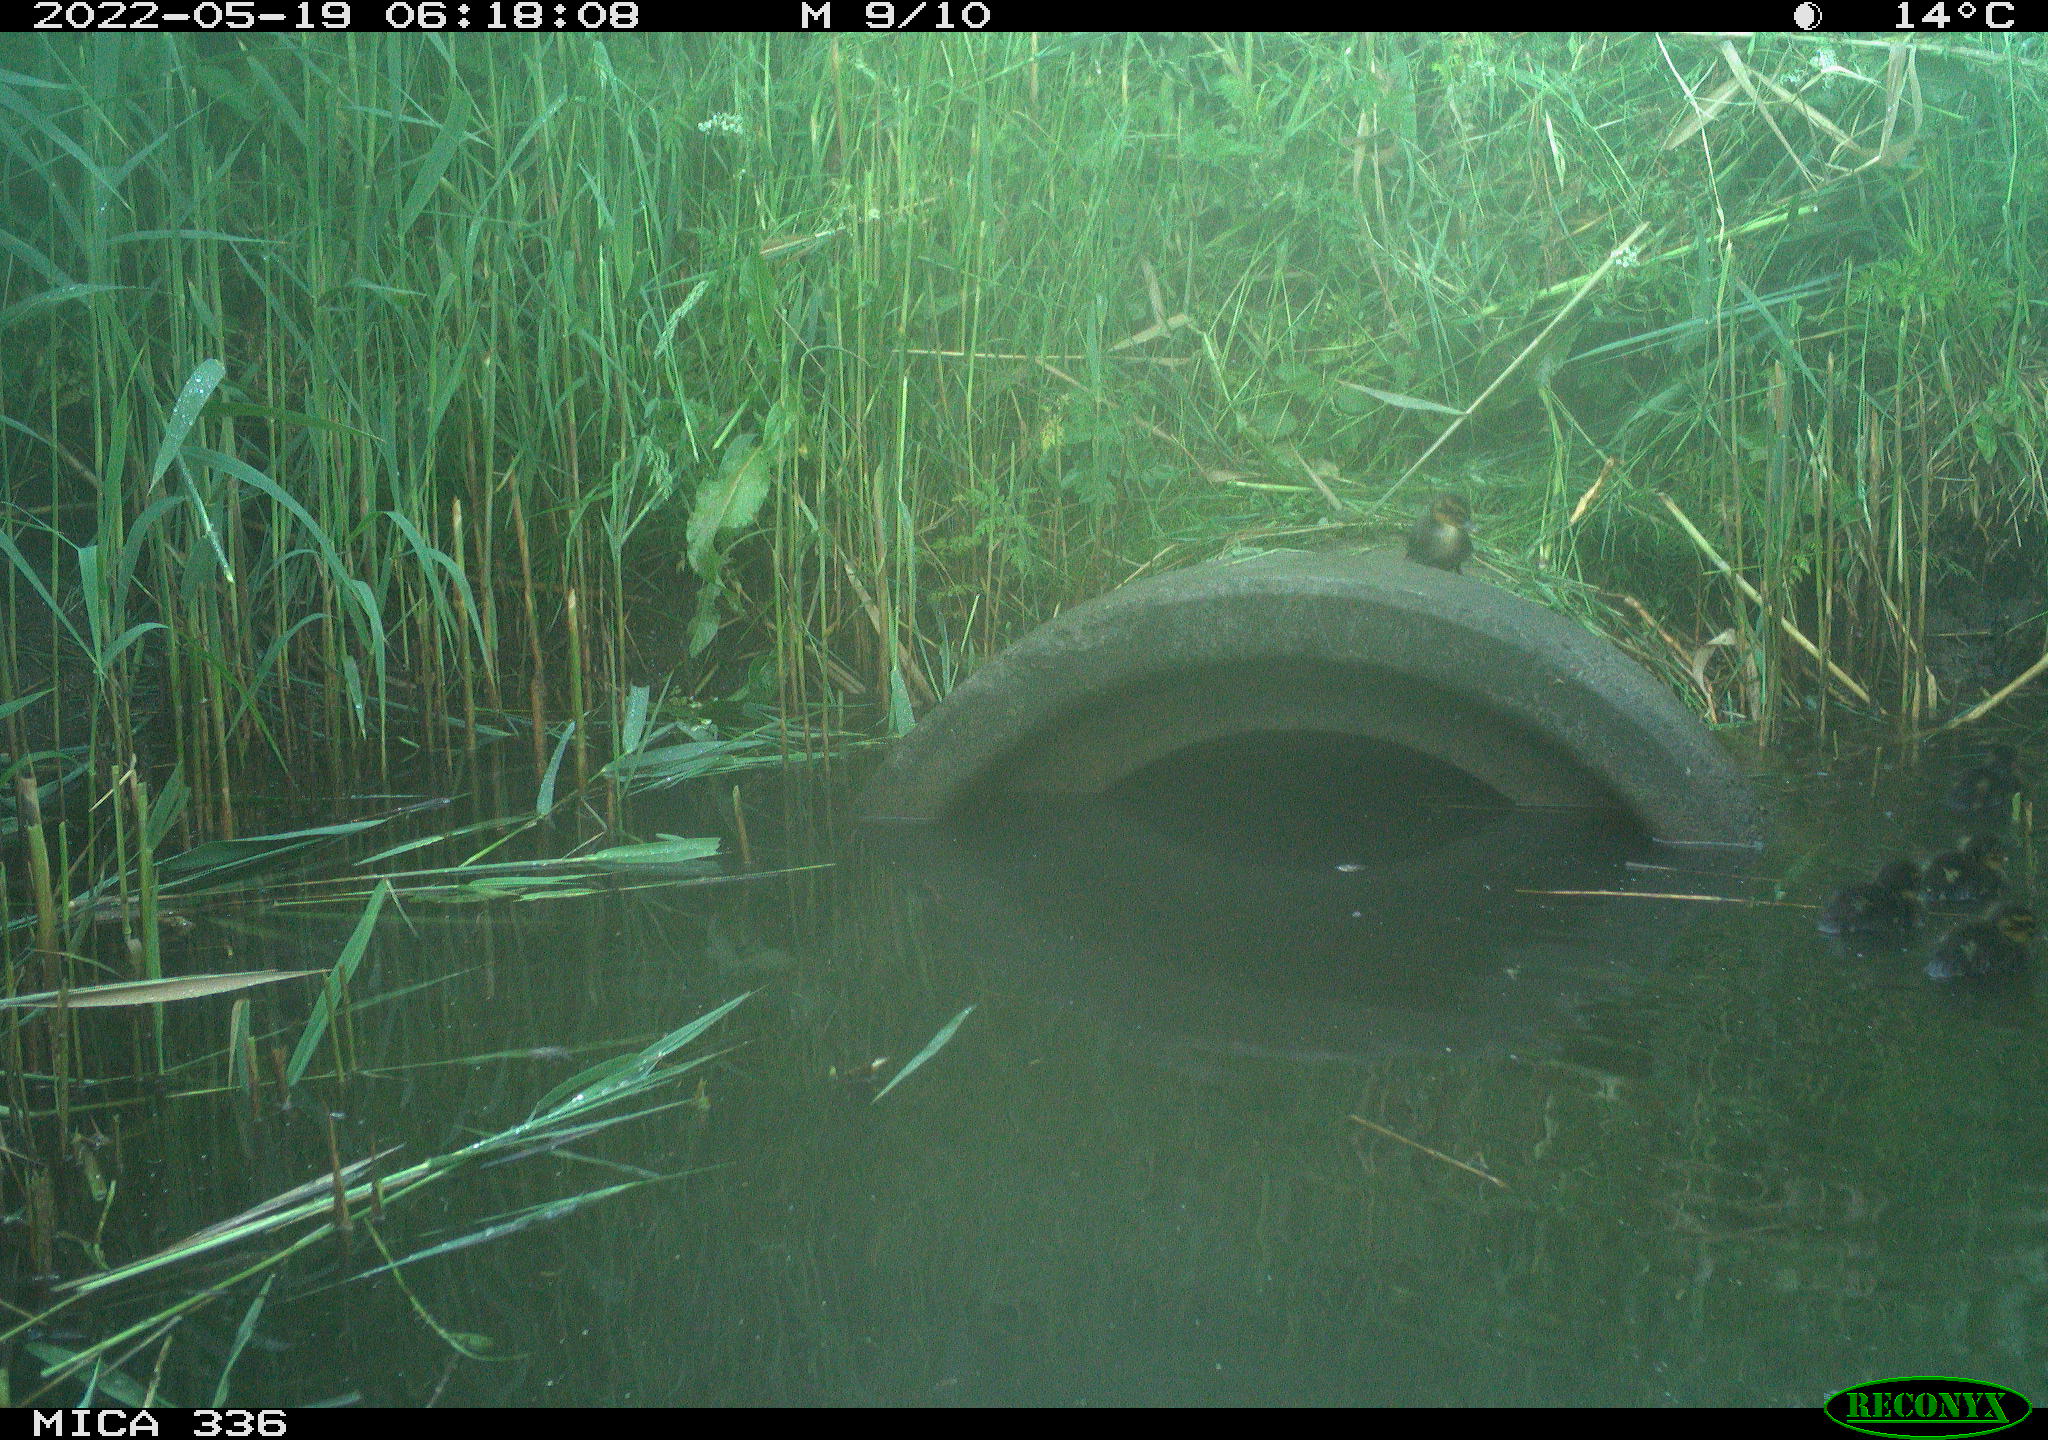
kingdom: Animalia
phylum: Chordata
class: Aves
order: Anseriformes
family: Anatidae
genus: Anas
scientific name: Anas platyrhynchos
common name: Mallard
